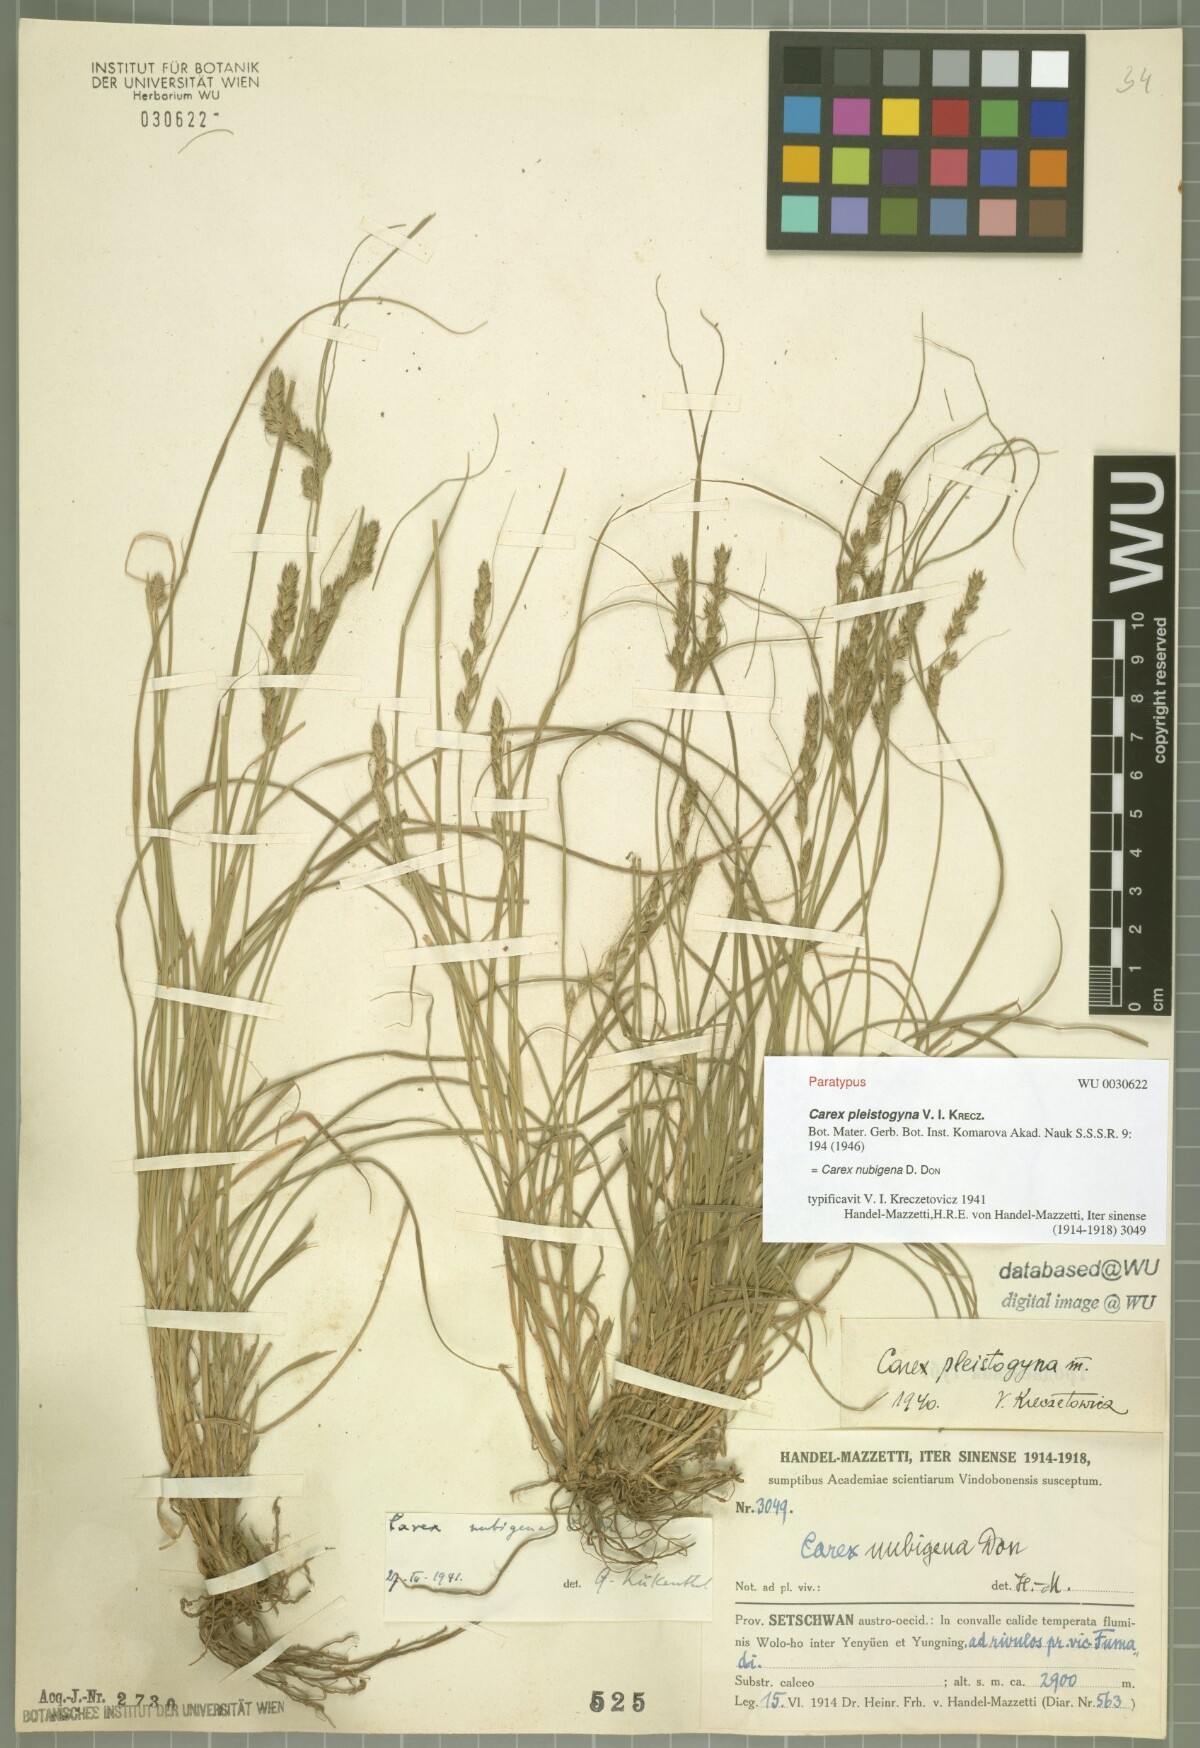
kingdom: Plantae
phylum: Tracheophyta
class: Liliopsida
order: Poales
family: Cyperaceae
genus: Carex
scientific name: Carex nubigena
